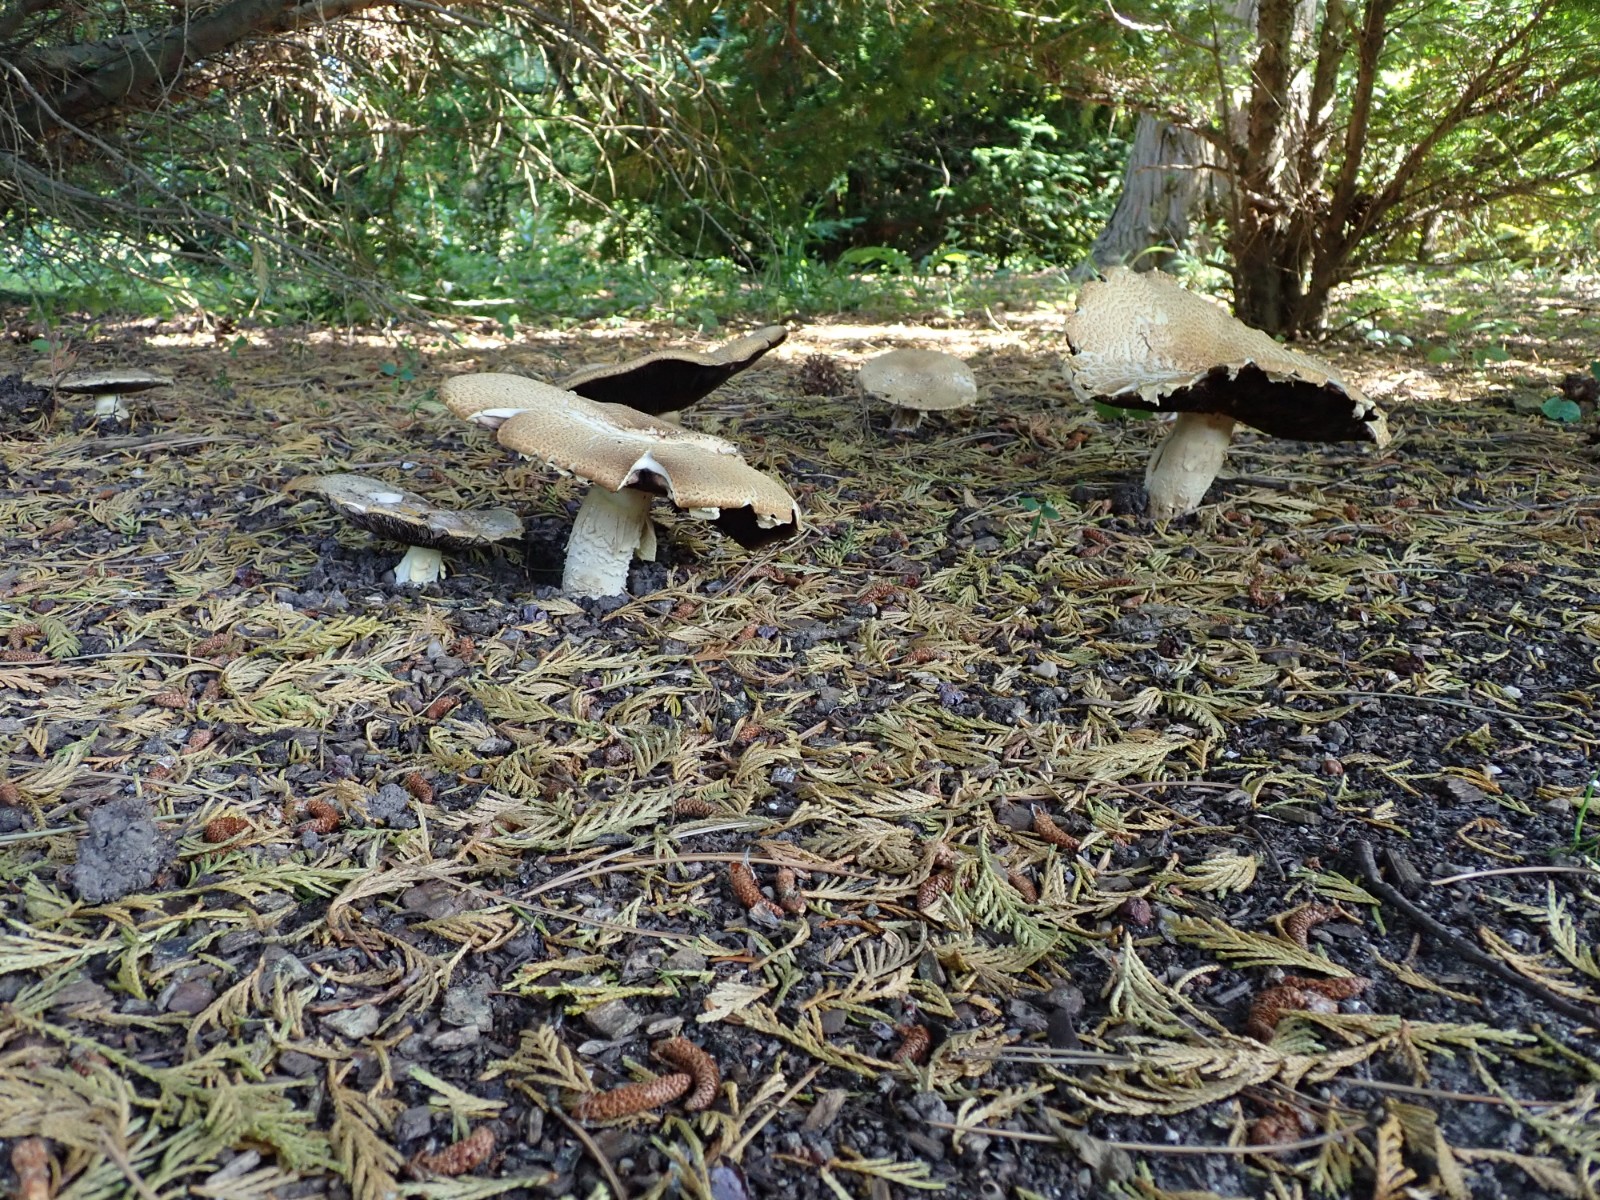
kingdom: Fungi
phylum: Basidiomycota
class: Agaricomycetes
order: Agaricales
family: Agaricaceae
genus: Agaricus
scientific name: Agaricus augustus
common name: prægtig champignon
